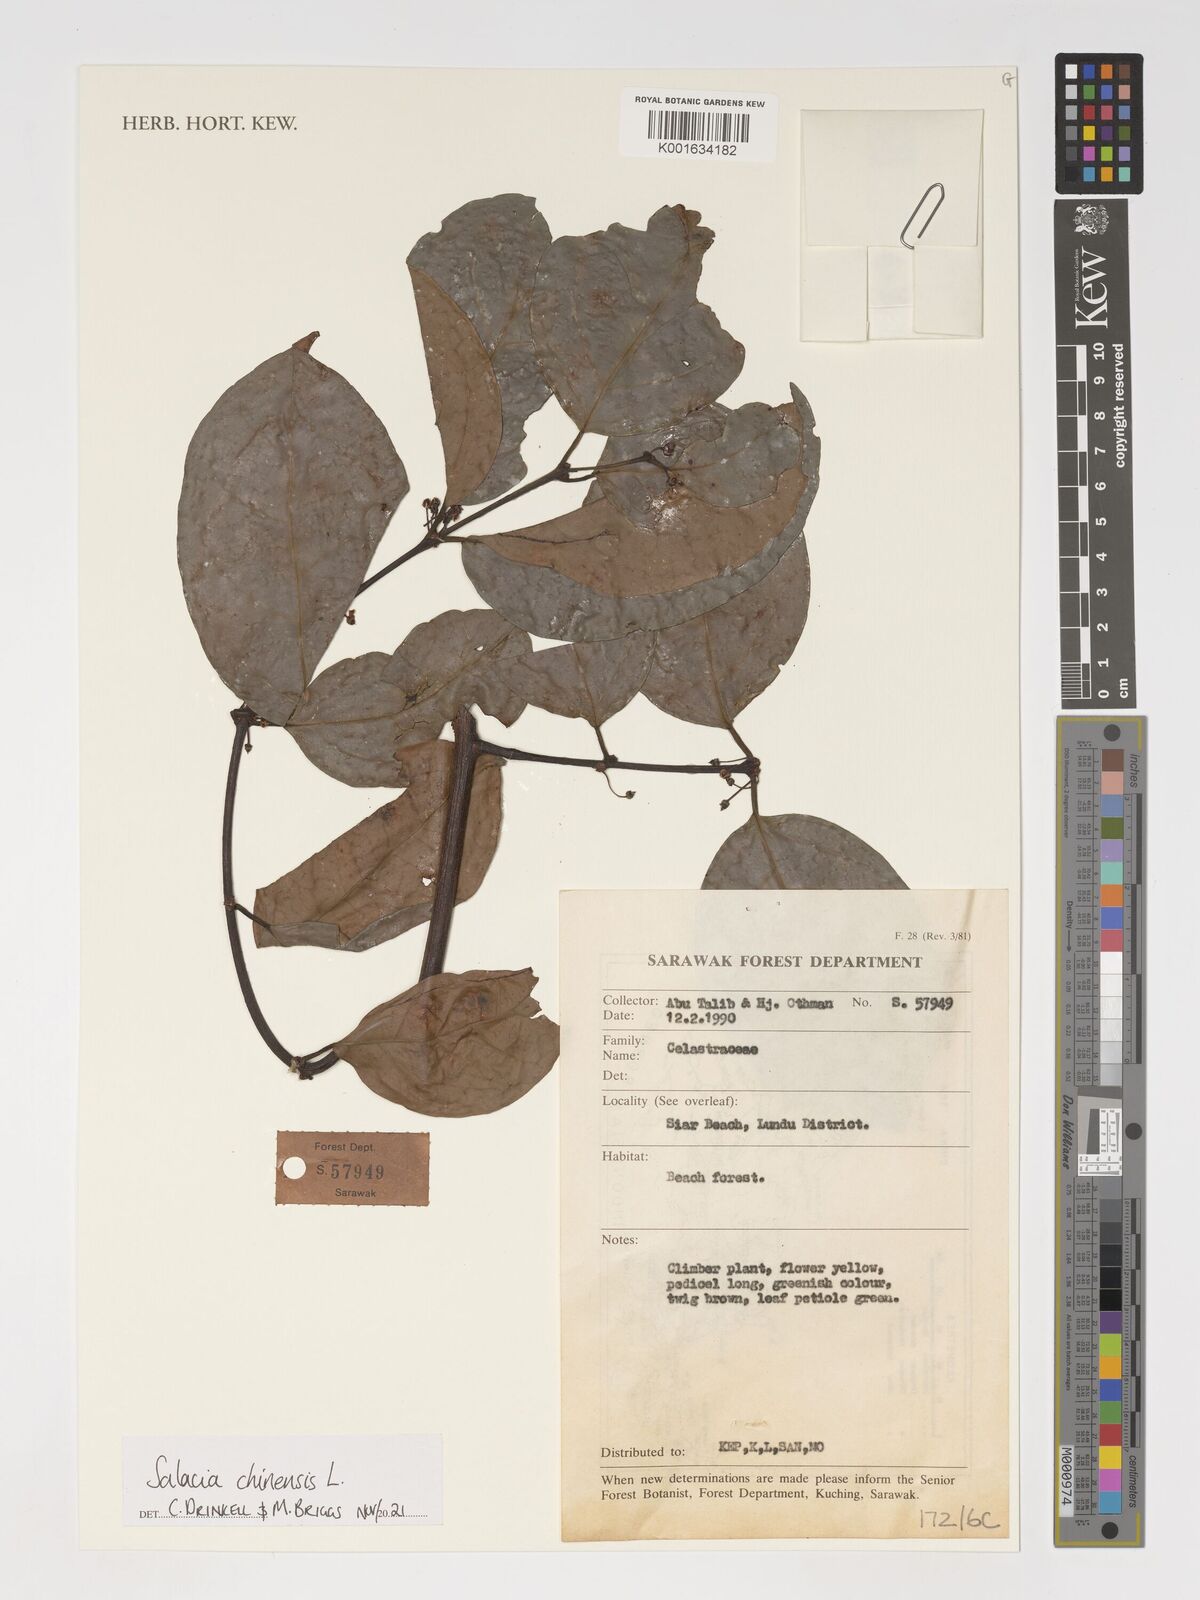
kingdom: Plantae
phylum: Tracheophyta
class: Magnoliopsida
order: Celastrales
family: Celastraceae
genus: Salacia
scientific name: Salacia chinensis
